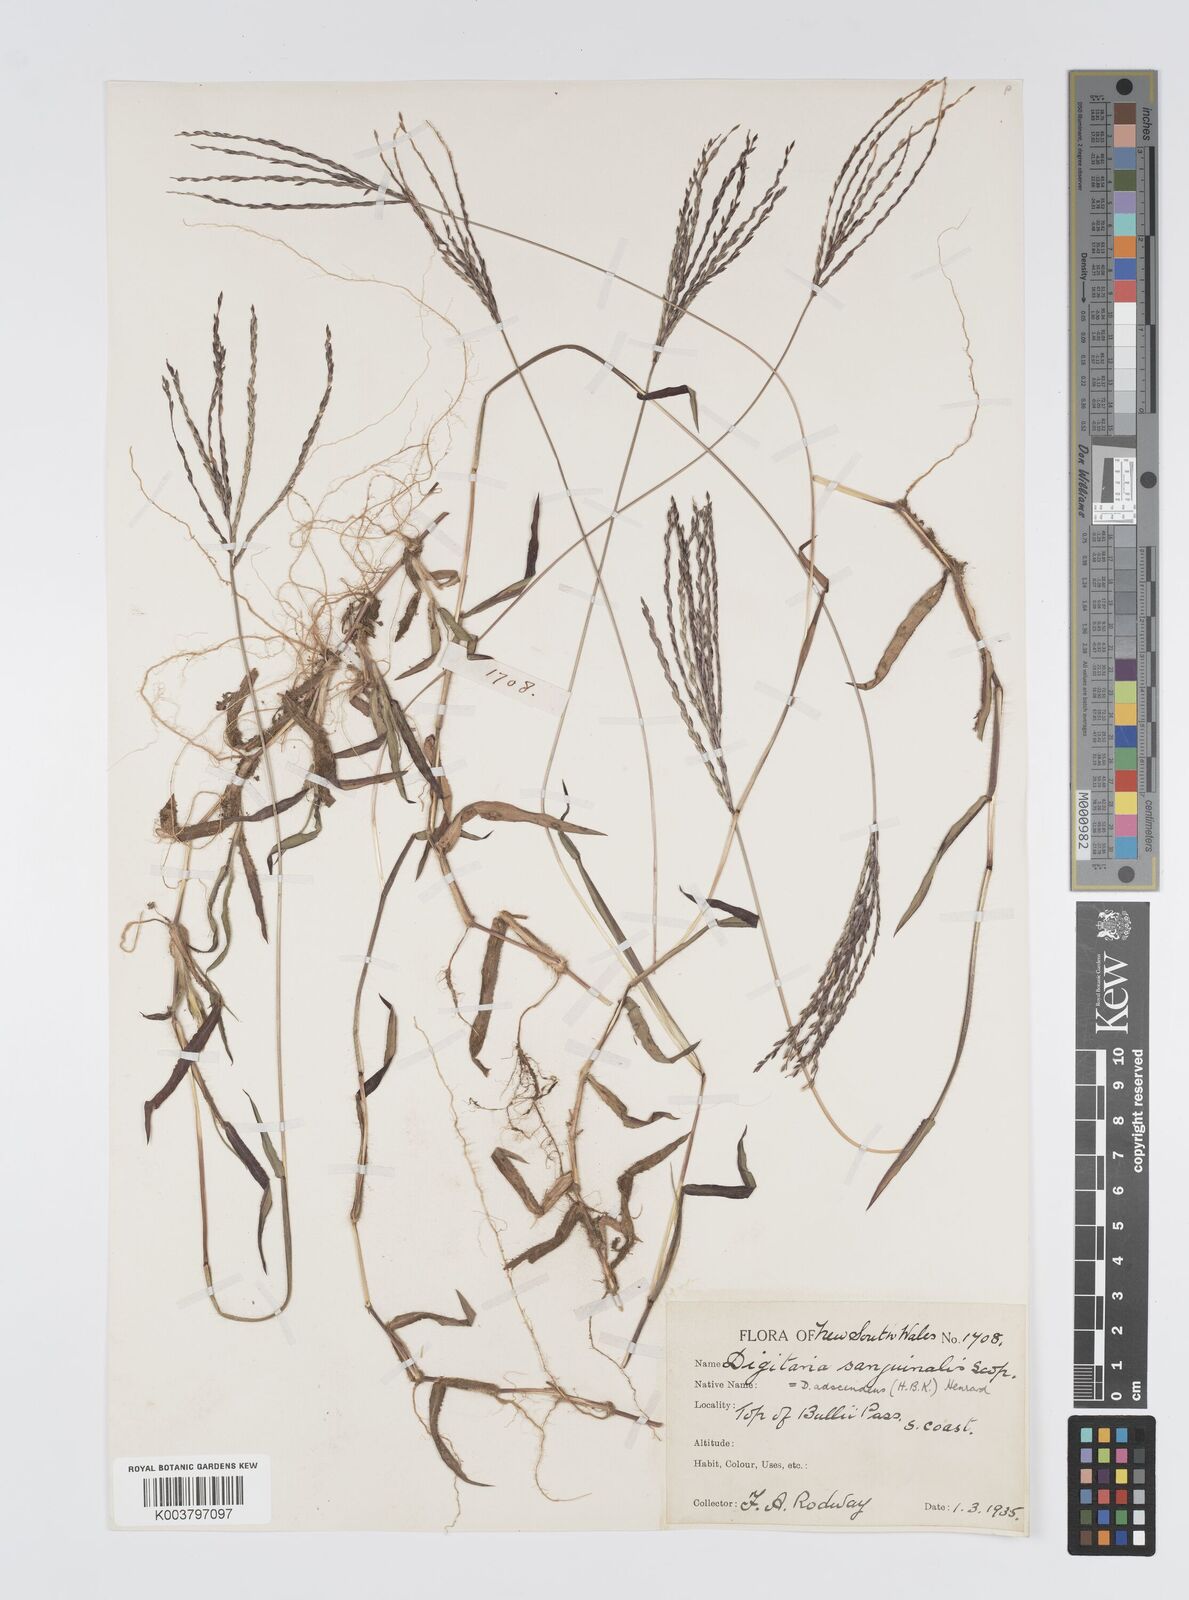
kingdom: Plantae
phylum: Tracheophyta
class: Liliopsida
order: Poales
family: Poaceae
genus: Digitaria
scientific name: Digitaria ciliaris
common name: Tropical finger-grass
